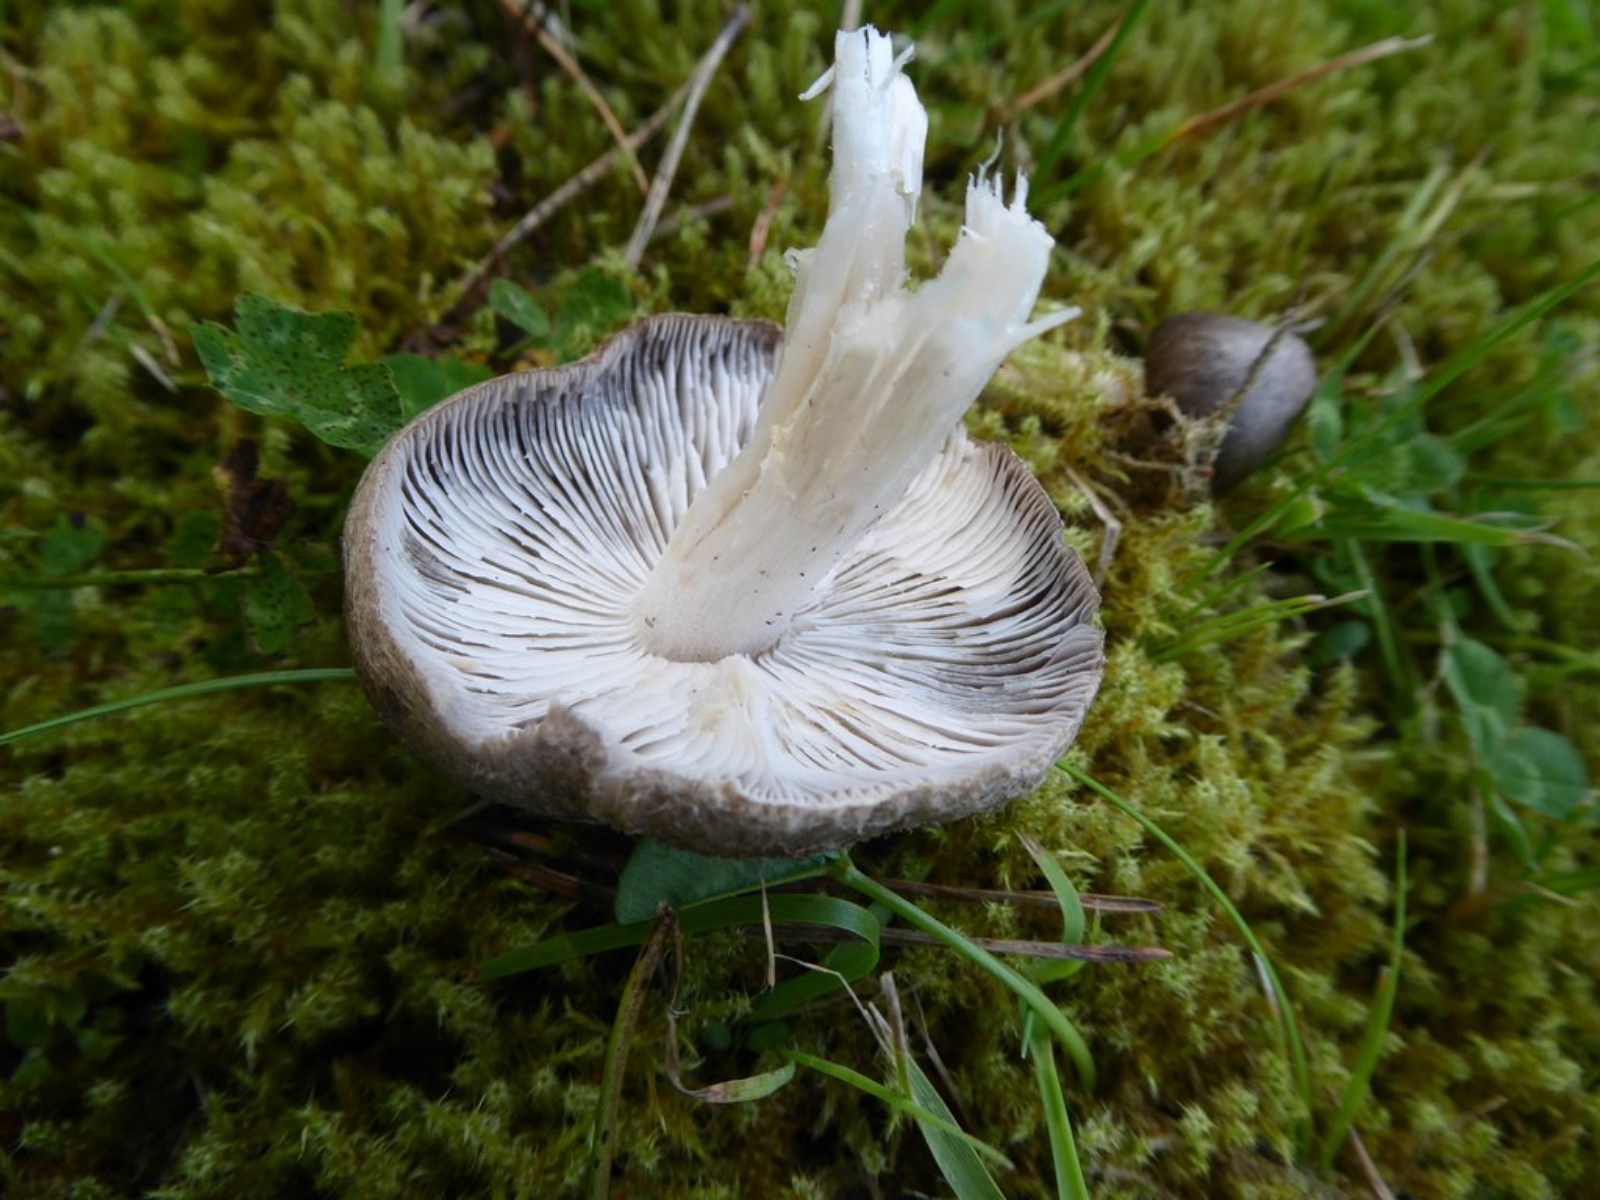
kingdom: Fungi
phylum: Basidiomycota
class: Agaricomycetes
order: Agaricales
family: Tricholomataceae
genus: Tricholoma
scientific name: Tricholoma terreum
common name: jordfarvet ridderhat
